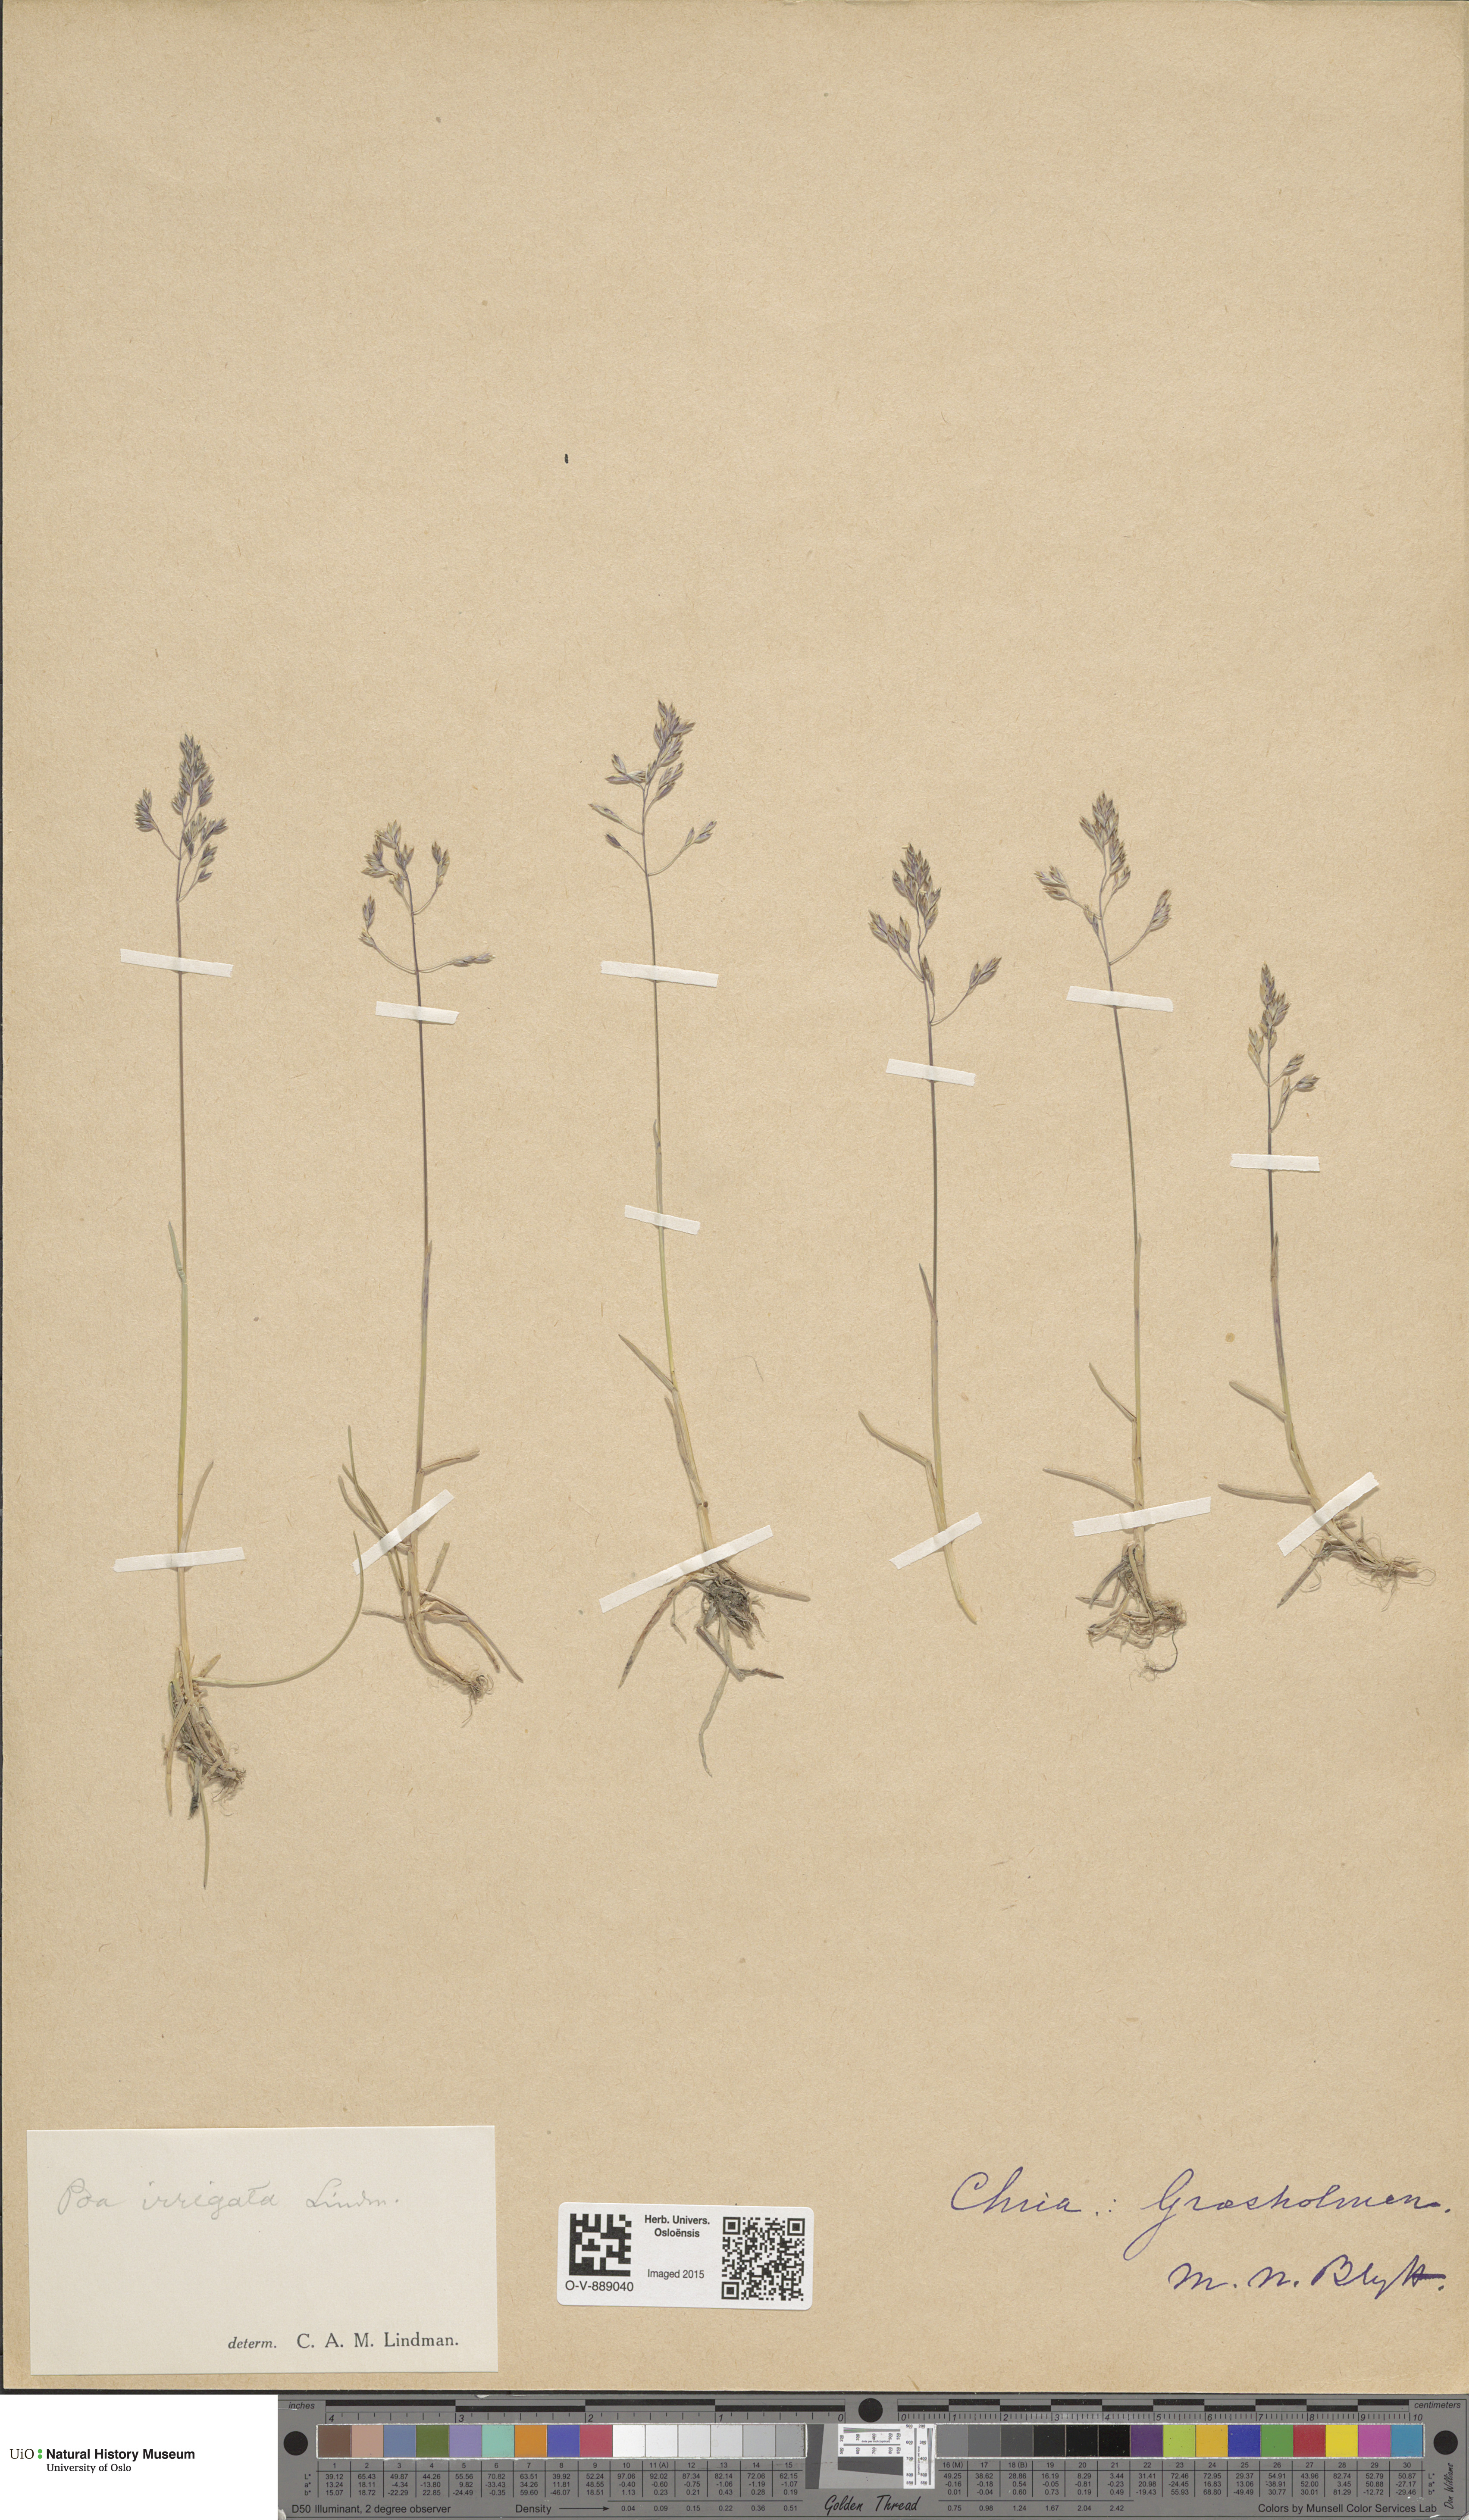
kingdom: Plantae
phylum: Tracheophyta
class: Liliopsida
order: Poales
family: Poaceae
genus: Poa
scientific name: Poa humilis
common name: Spreading meadow-grass
